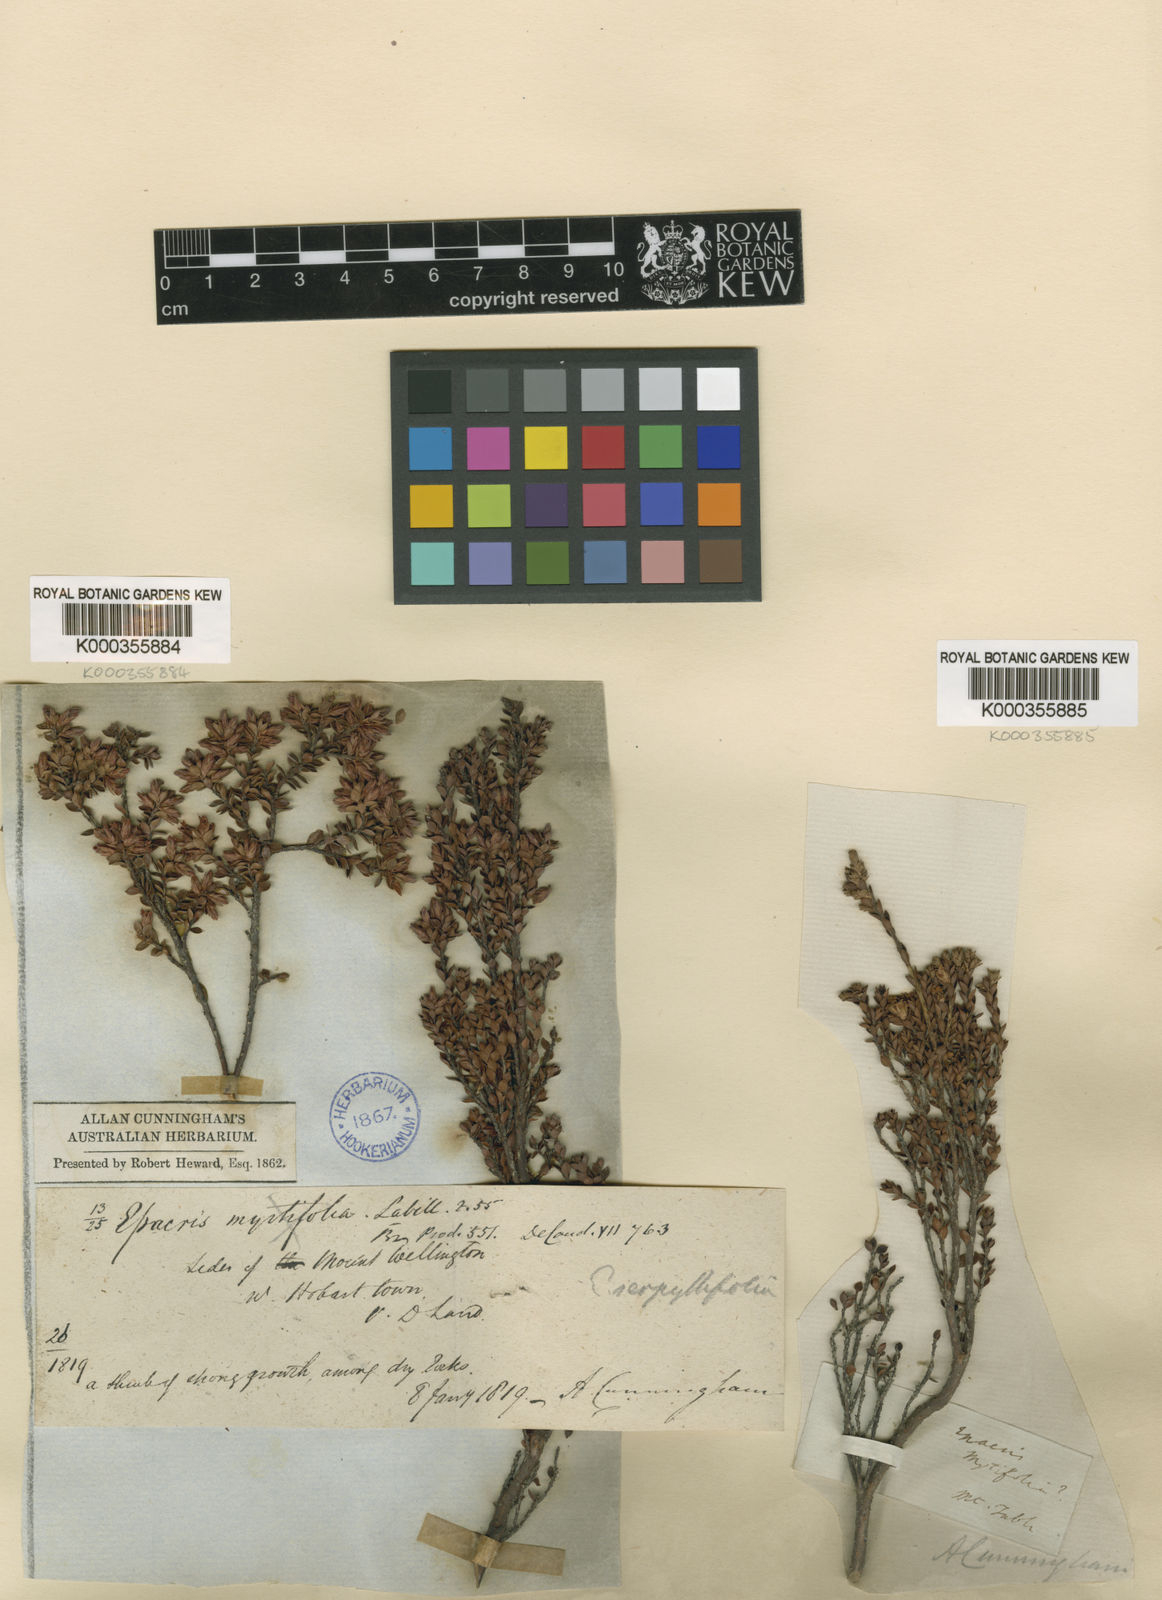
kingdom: Plantae
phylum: Tracheophyta
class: Magnoliopsida
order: Ericales
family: Ericaceae
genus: Epacris
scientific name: Epacris serpyllifolia
